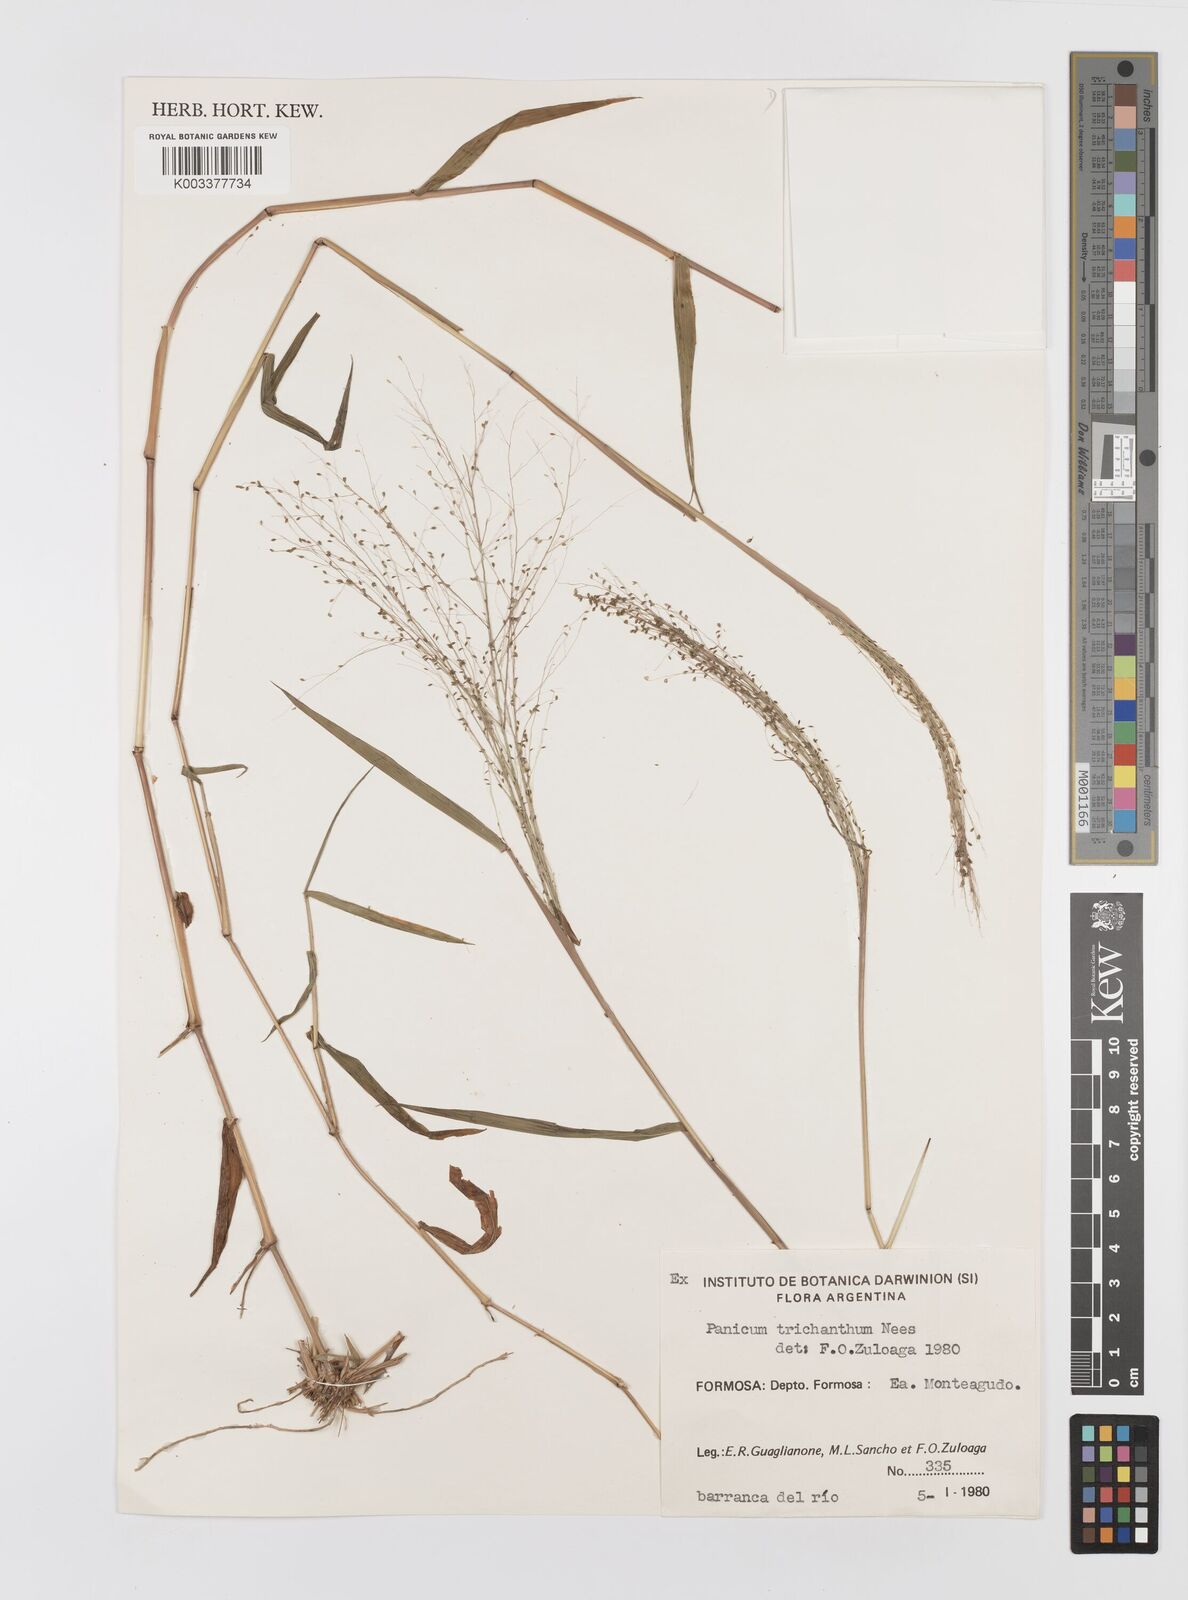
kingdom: Plantae
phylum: Tracheophyta
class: Liliopsida
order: Poales
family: Poaceae
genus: Panicum
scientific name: Panicum trichanthum
